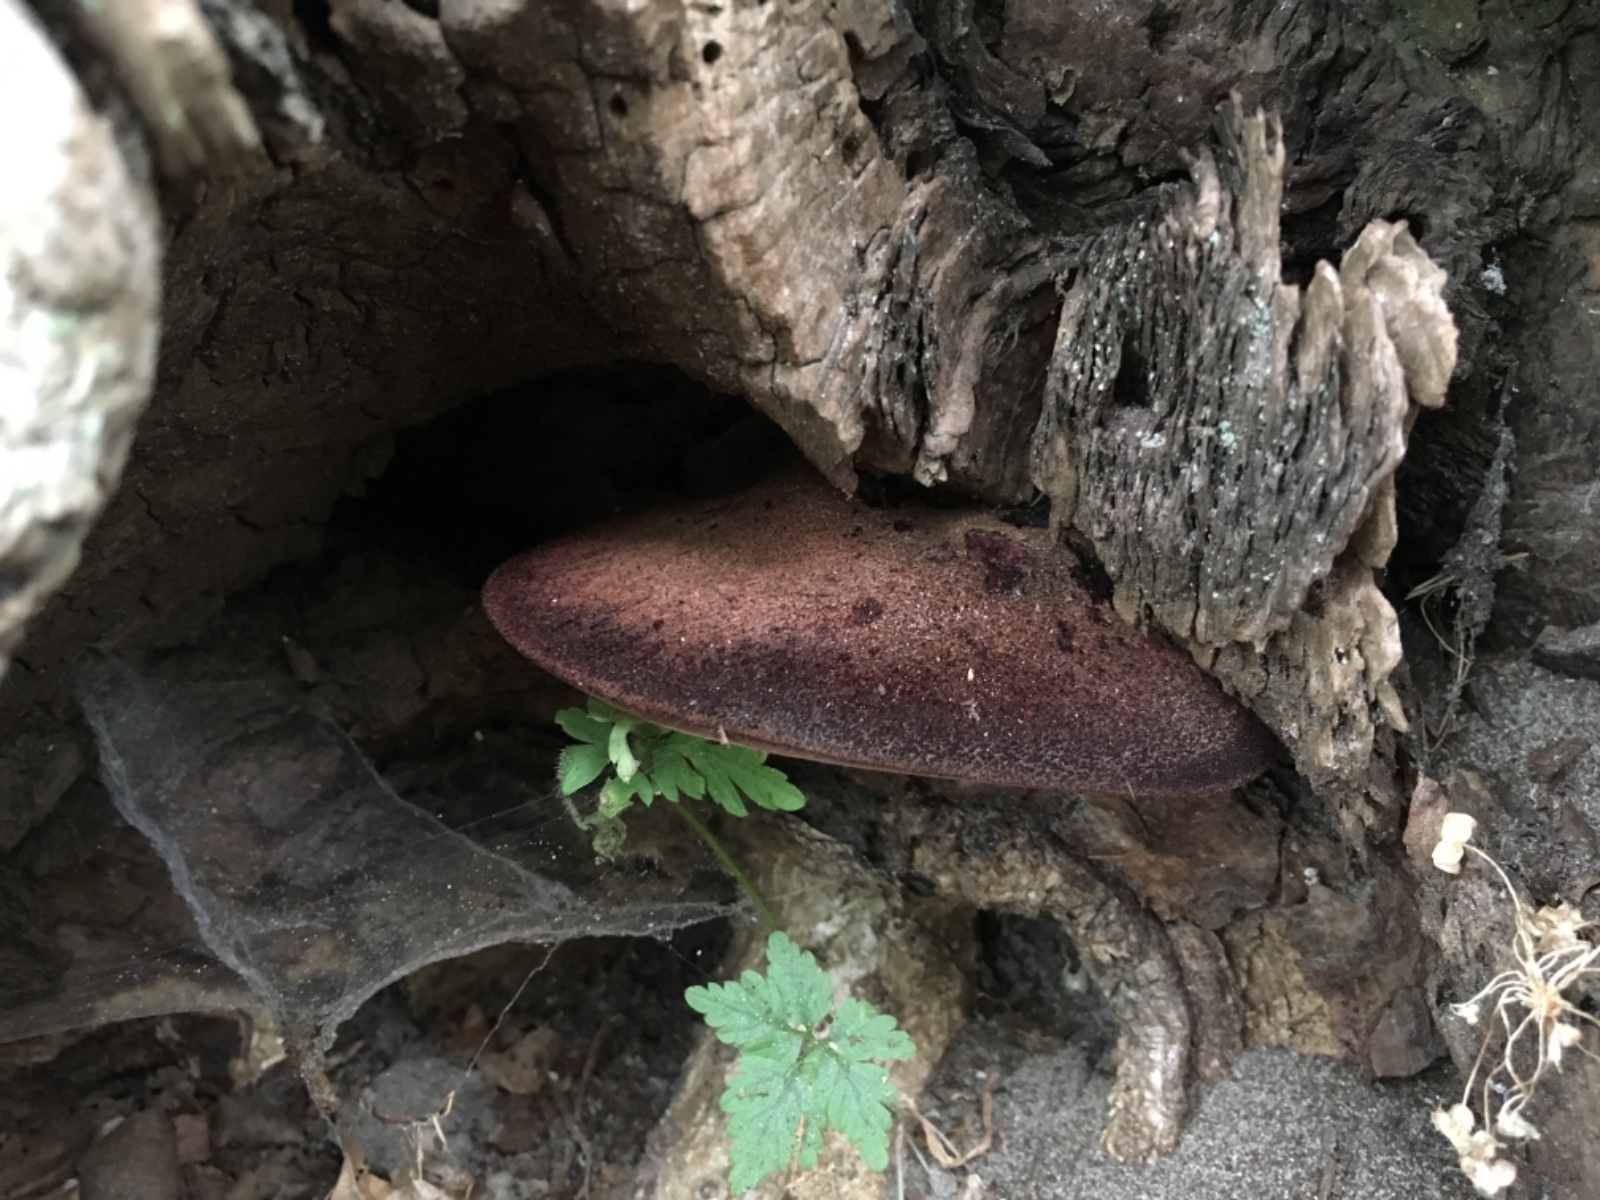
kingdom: Fungi
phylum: Basidiomycota
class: Agaricomycetes
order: Agaricales
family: Fistulinaceae
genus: Fistulina
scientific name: Fistulina hepatica
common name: oksetunge
